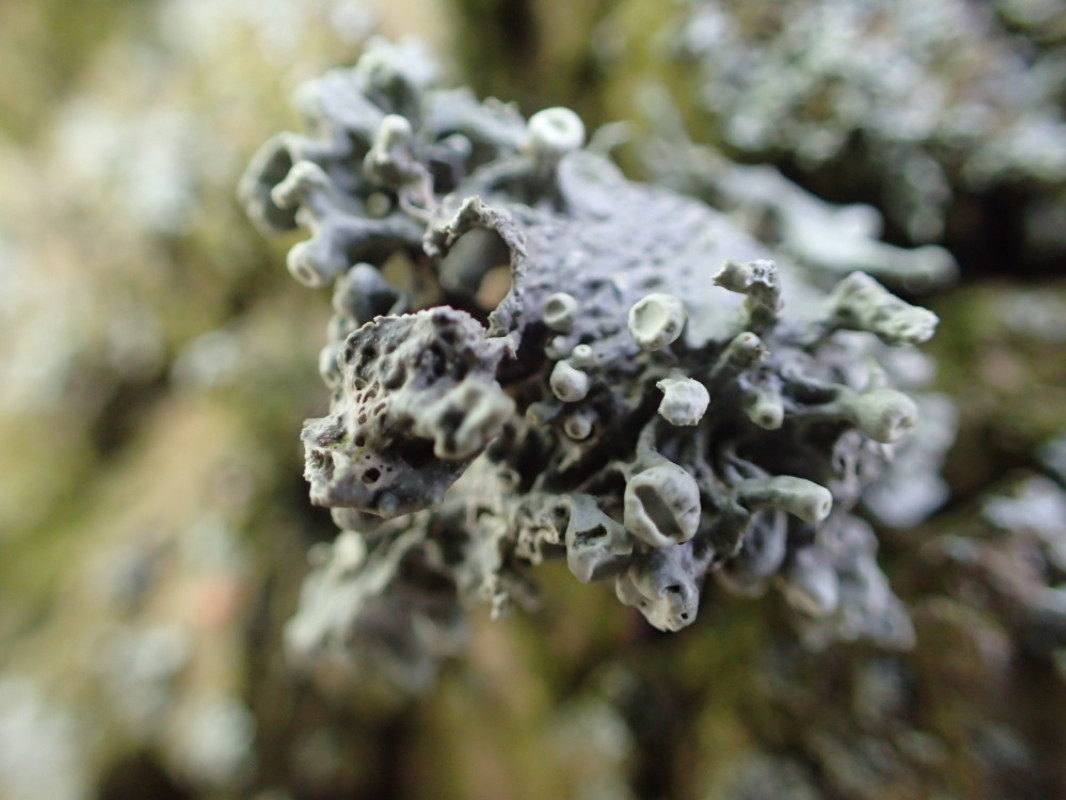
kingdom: Fungi
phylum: Ascomycota
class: Lecanoromycetes
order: Lecanorales
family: Ramalinaceae
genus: Ramalina
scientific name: Ramalina fastigiata
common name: tue-grenlav
